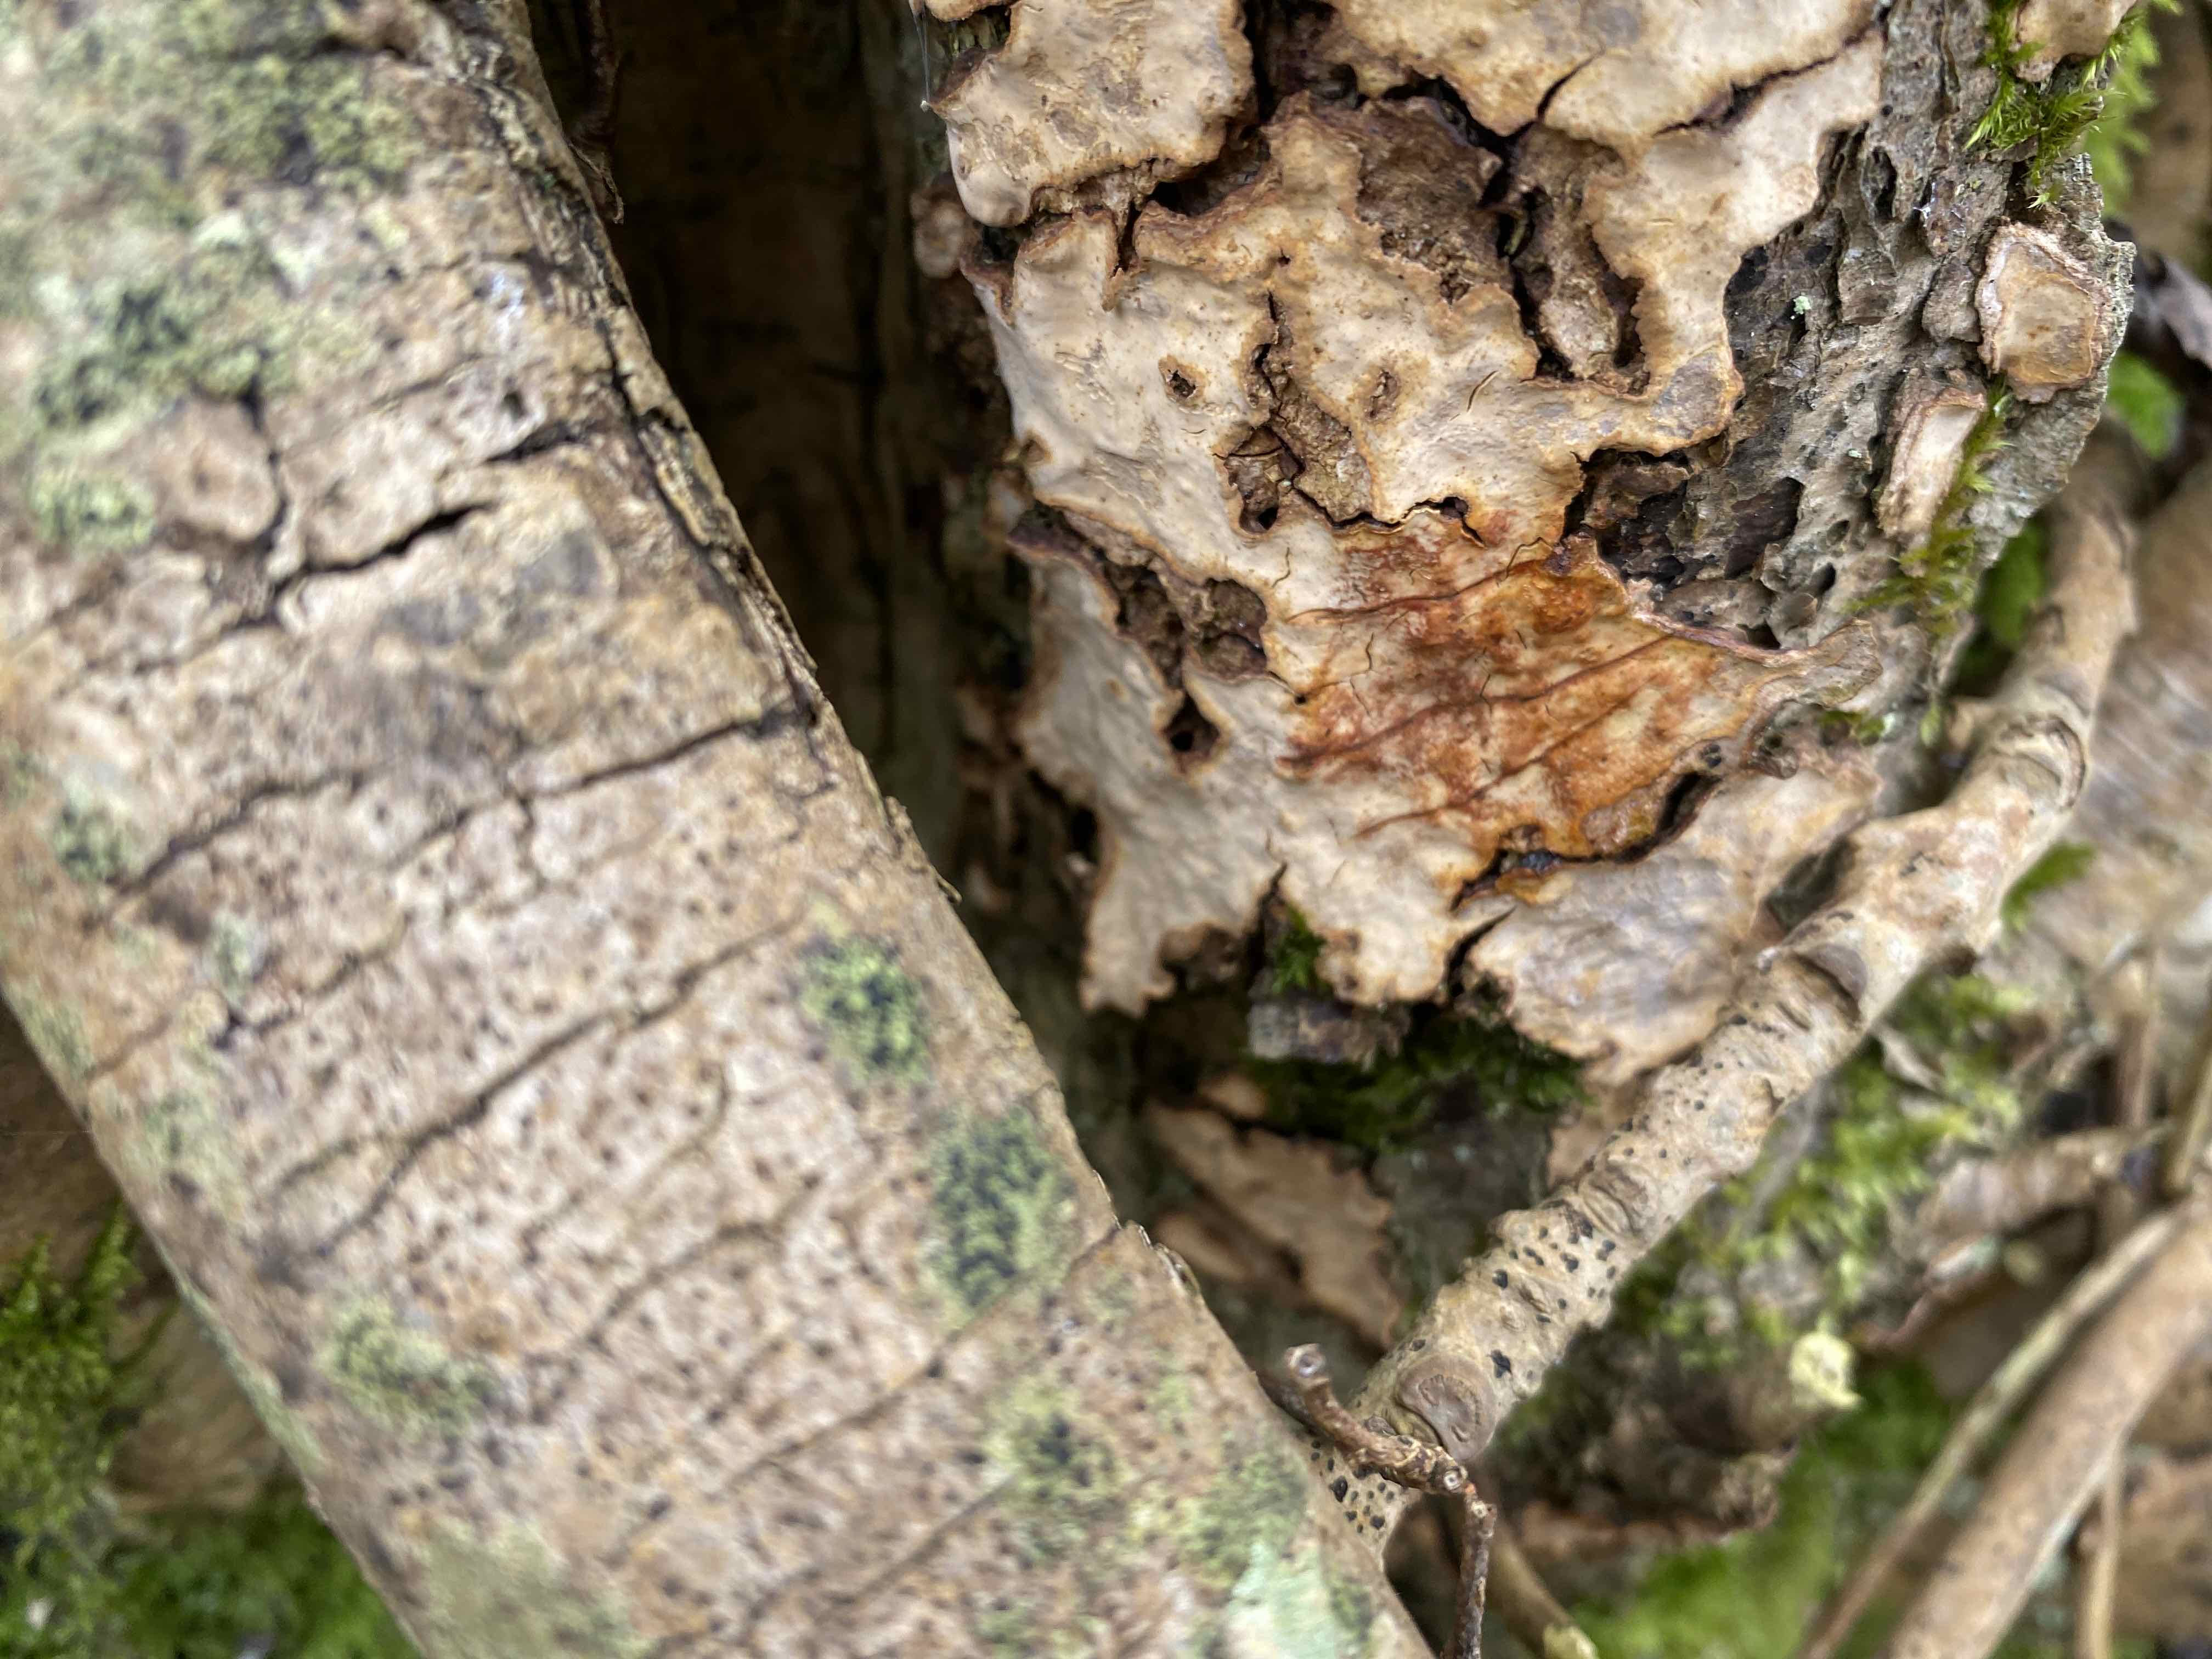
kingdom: Fungi
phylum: Basidiomycota
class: Agaricomycetes
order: Russulales
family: Stereaceae
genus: Stereum
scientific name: Stereum rugosum
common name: rynket lædersvamp
